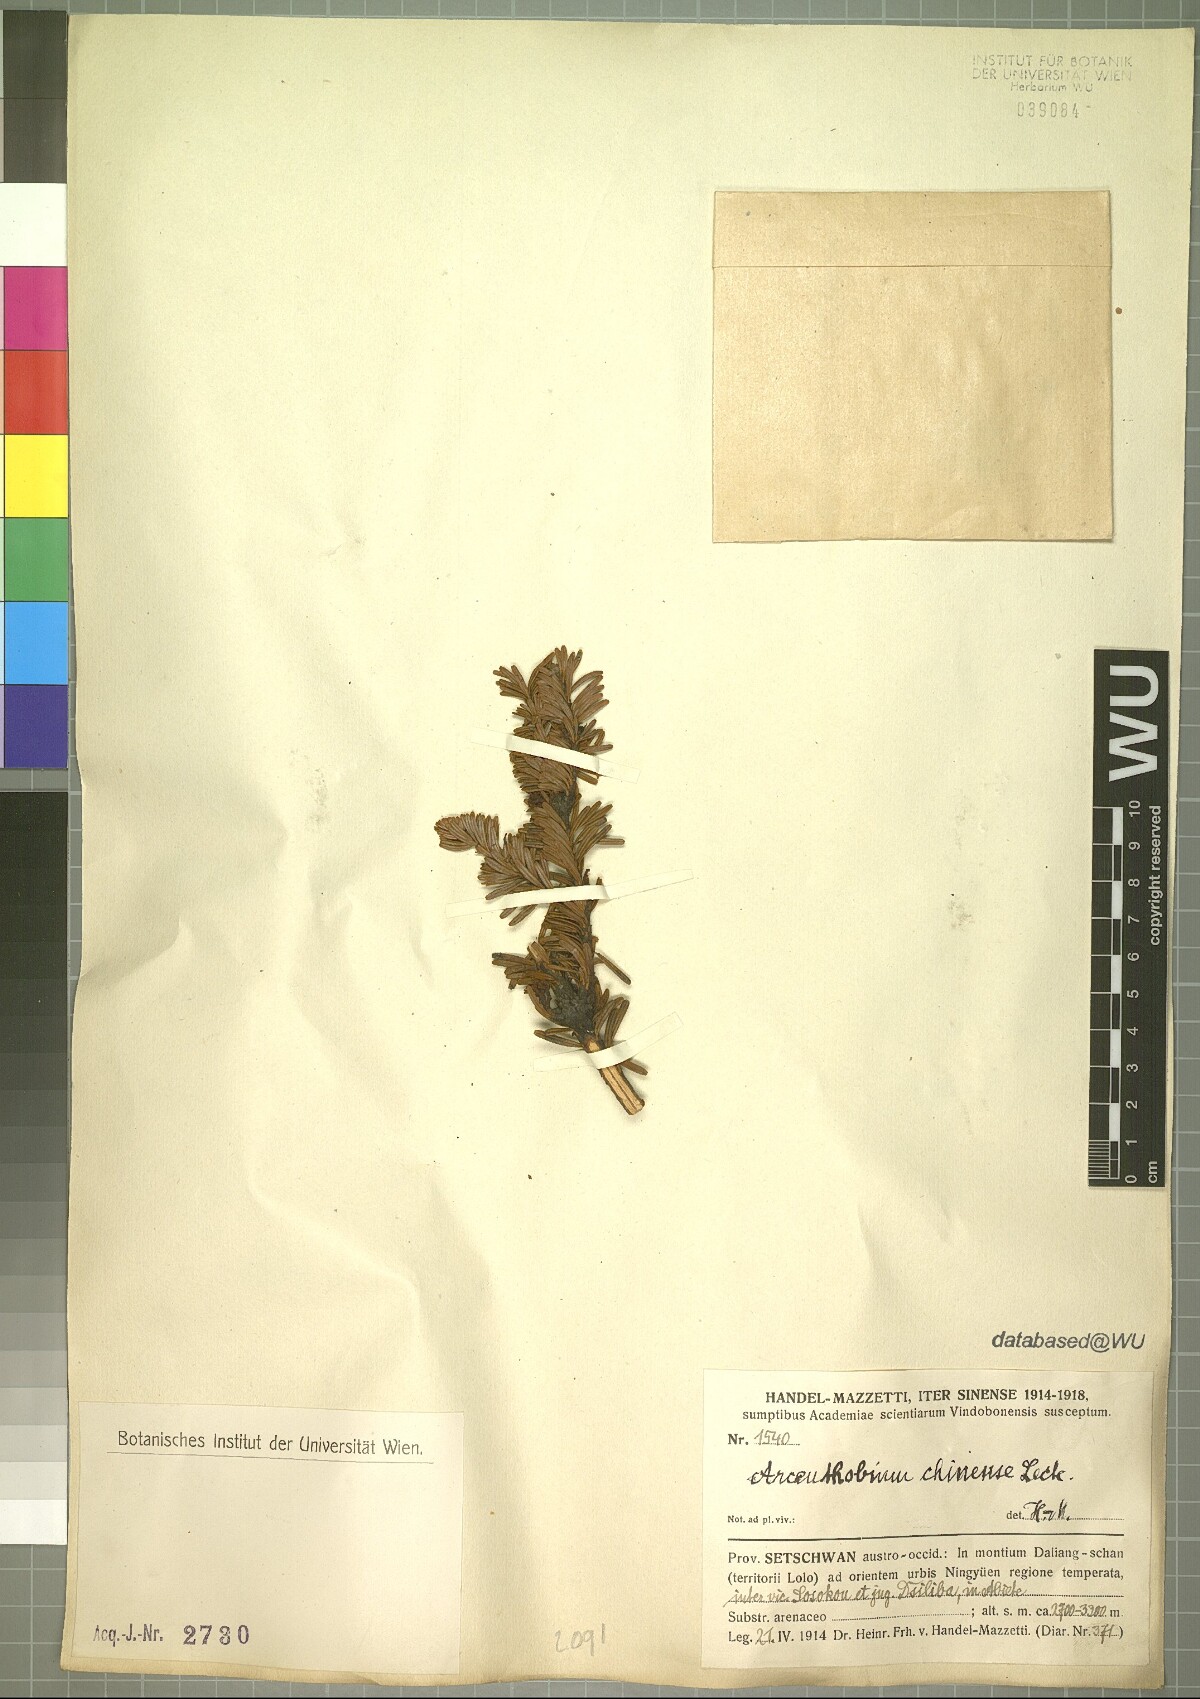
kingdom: Plantae
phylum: Tracheophyta
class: Magnoliopsida
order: Santalales
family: Viscaceae
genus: Arceuthobium
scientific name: Arceuthobium chinense
